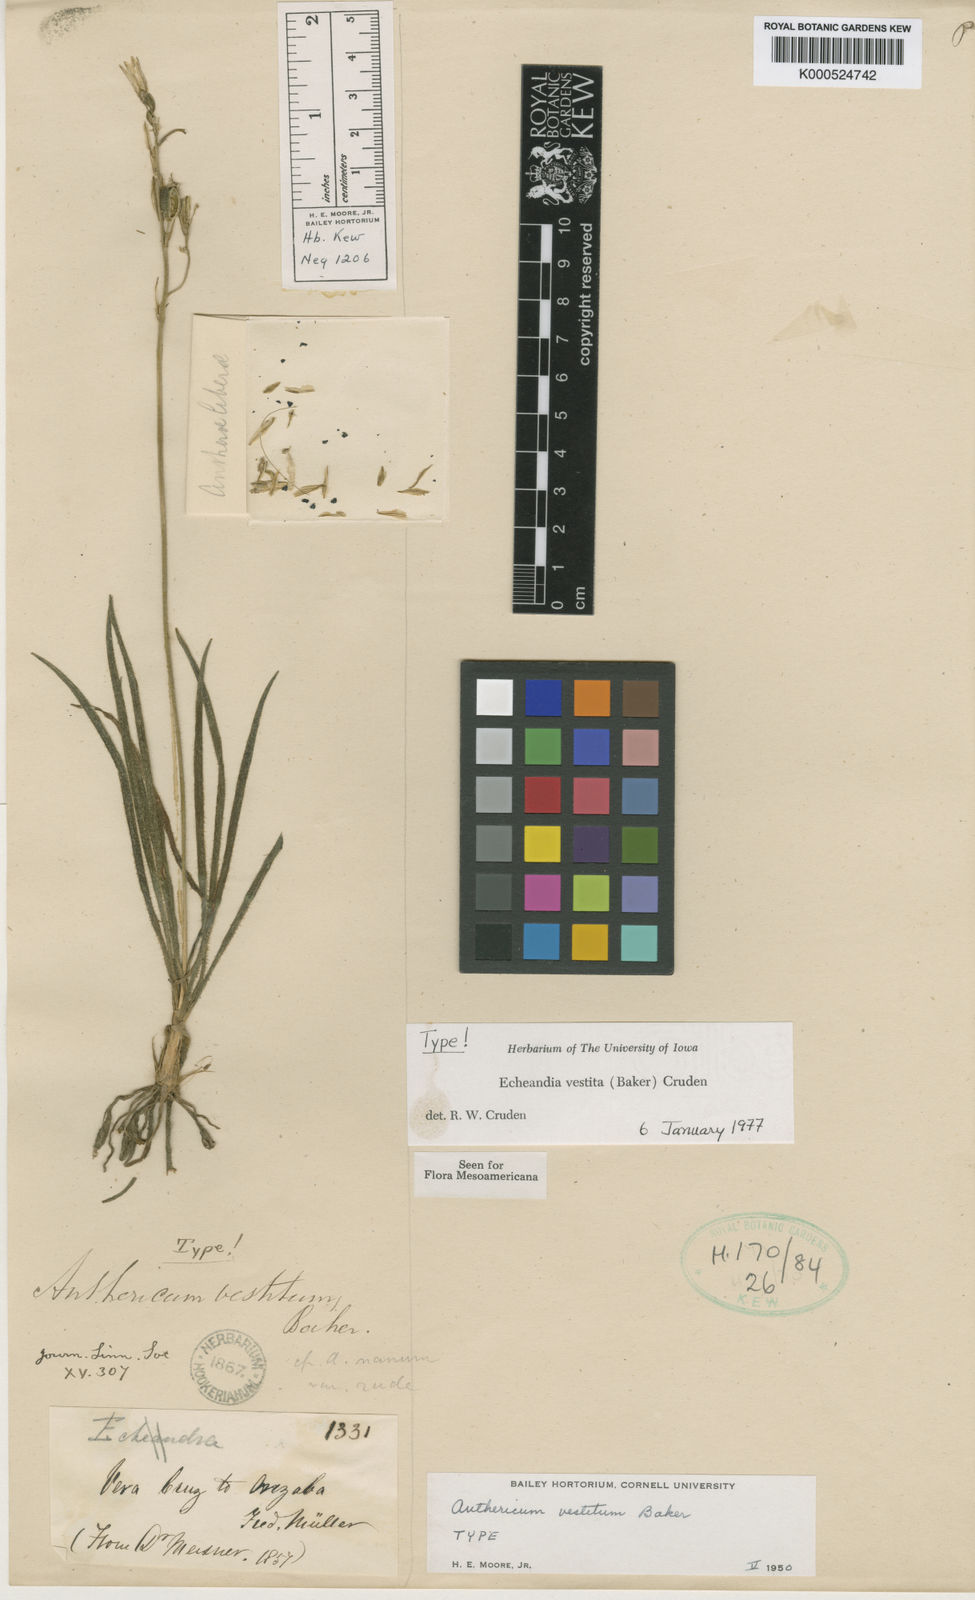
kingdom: Plantae
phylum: Tracheophyta
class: Liliopsida
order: Asparagales
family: Asparagaceae
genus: Echeandia
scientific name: Echeandia vestita
